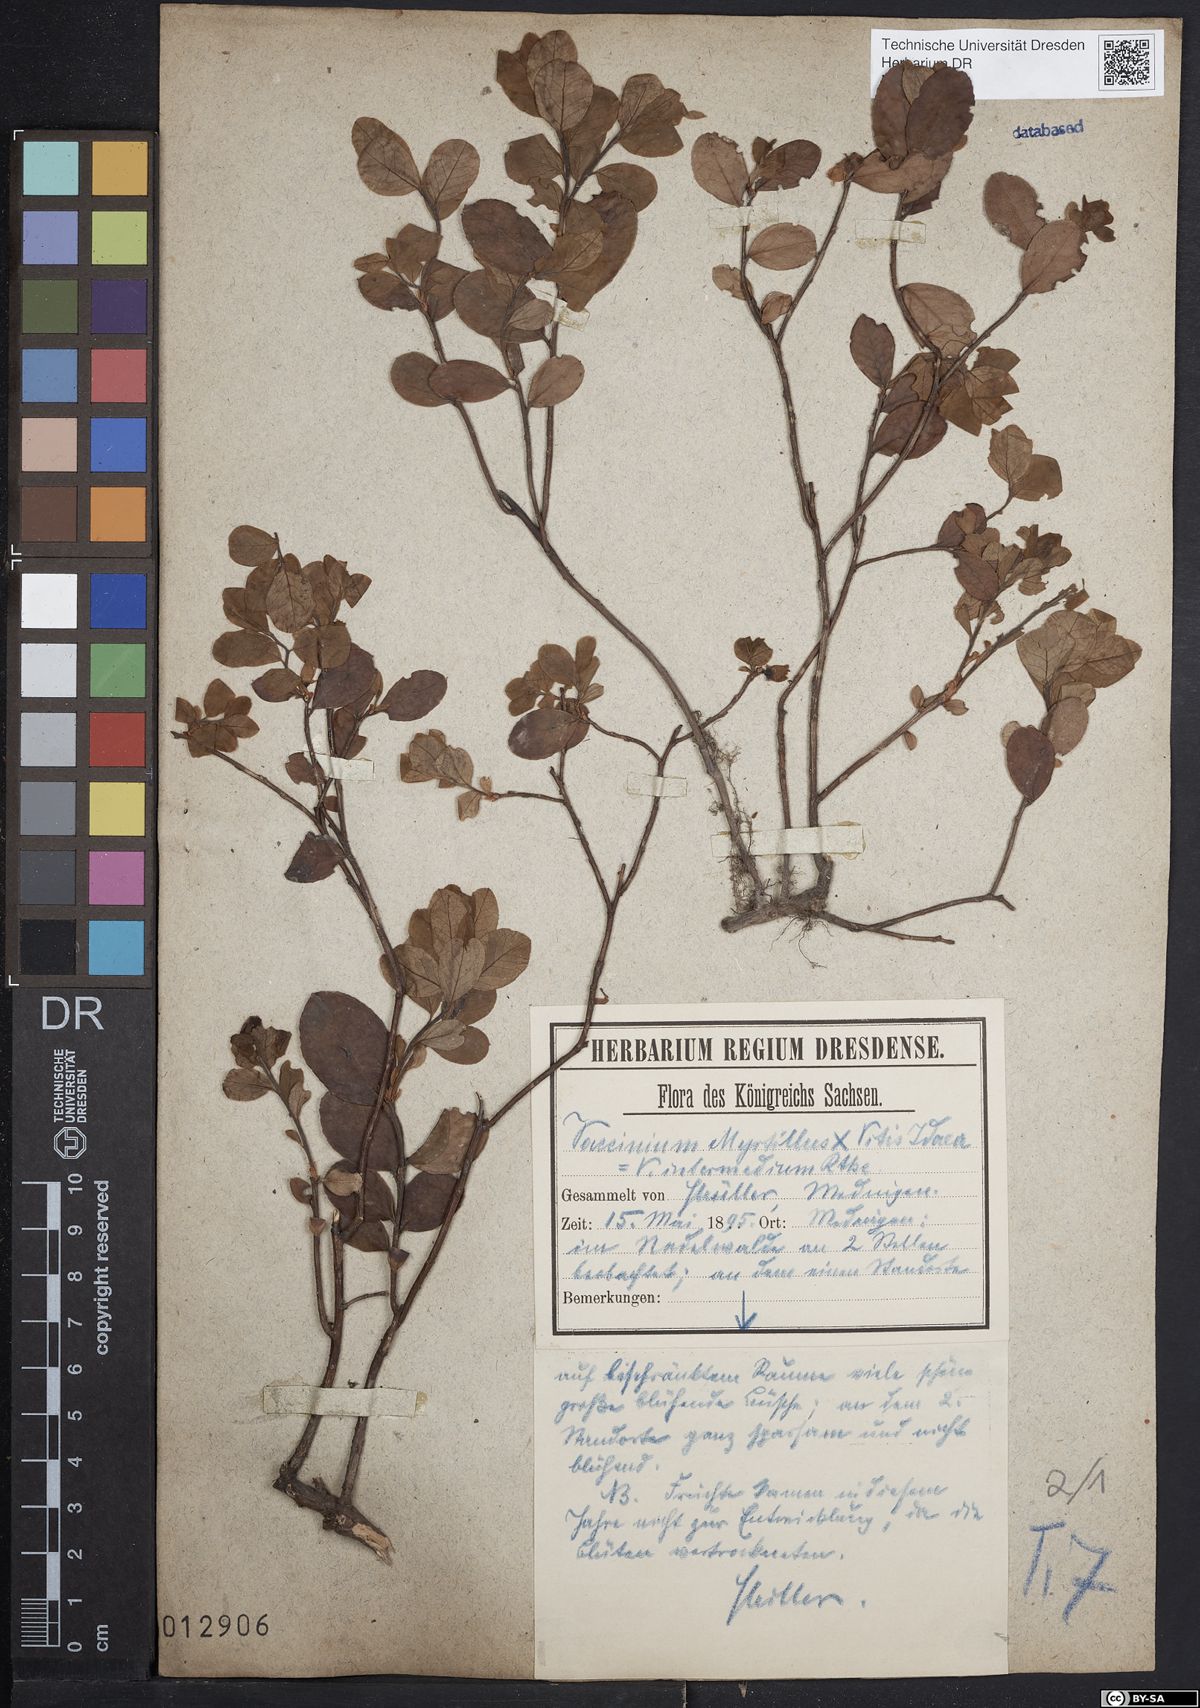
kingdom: Plantae
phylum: Tracheophyta
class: Magnoliopsida
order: Ericales
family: Ericaceae
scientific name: Ericaceae
